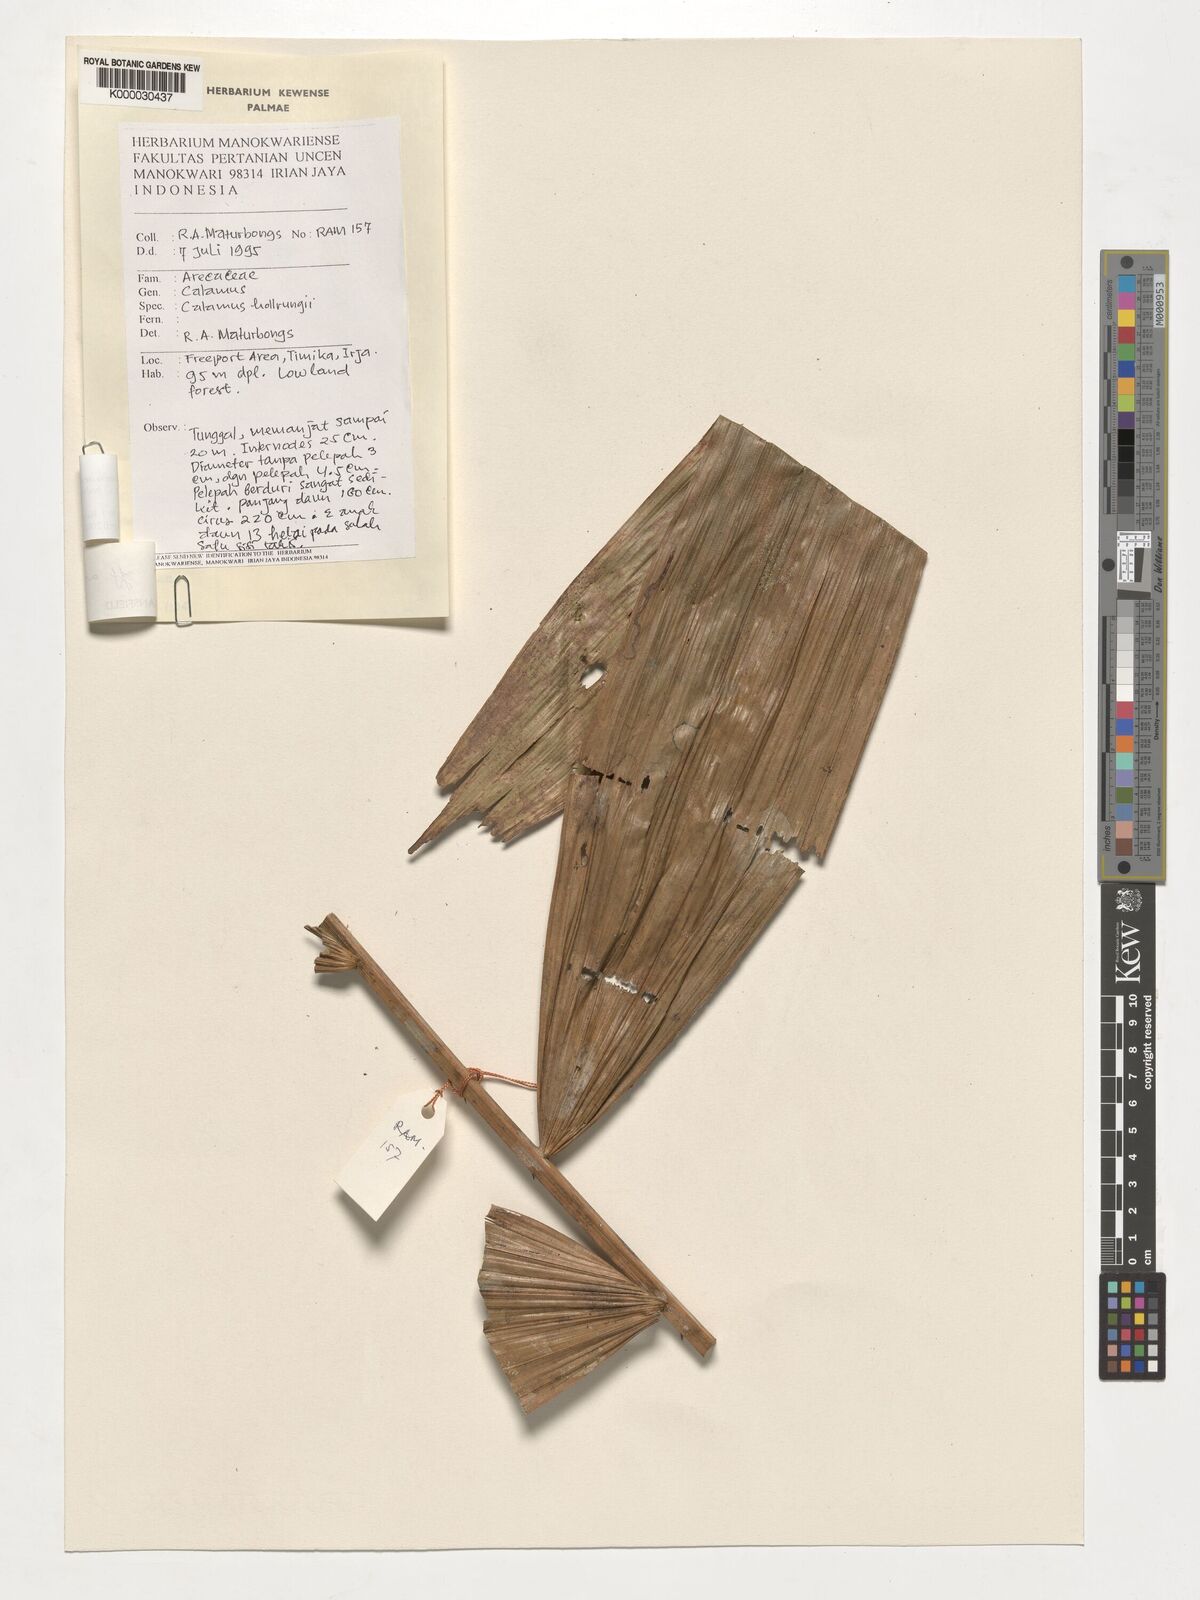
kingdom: Plantae
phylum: Tracheophyta
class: Liliopsida
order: Arecales
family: Arecaceae
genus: Calamus
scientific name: Calamus aruensis
